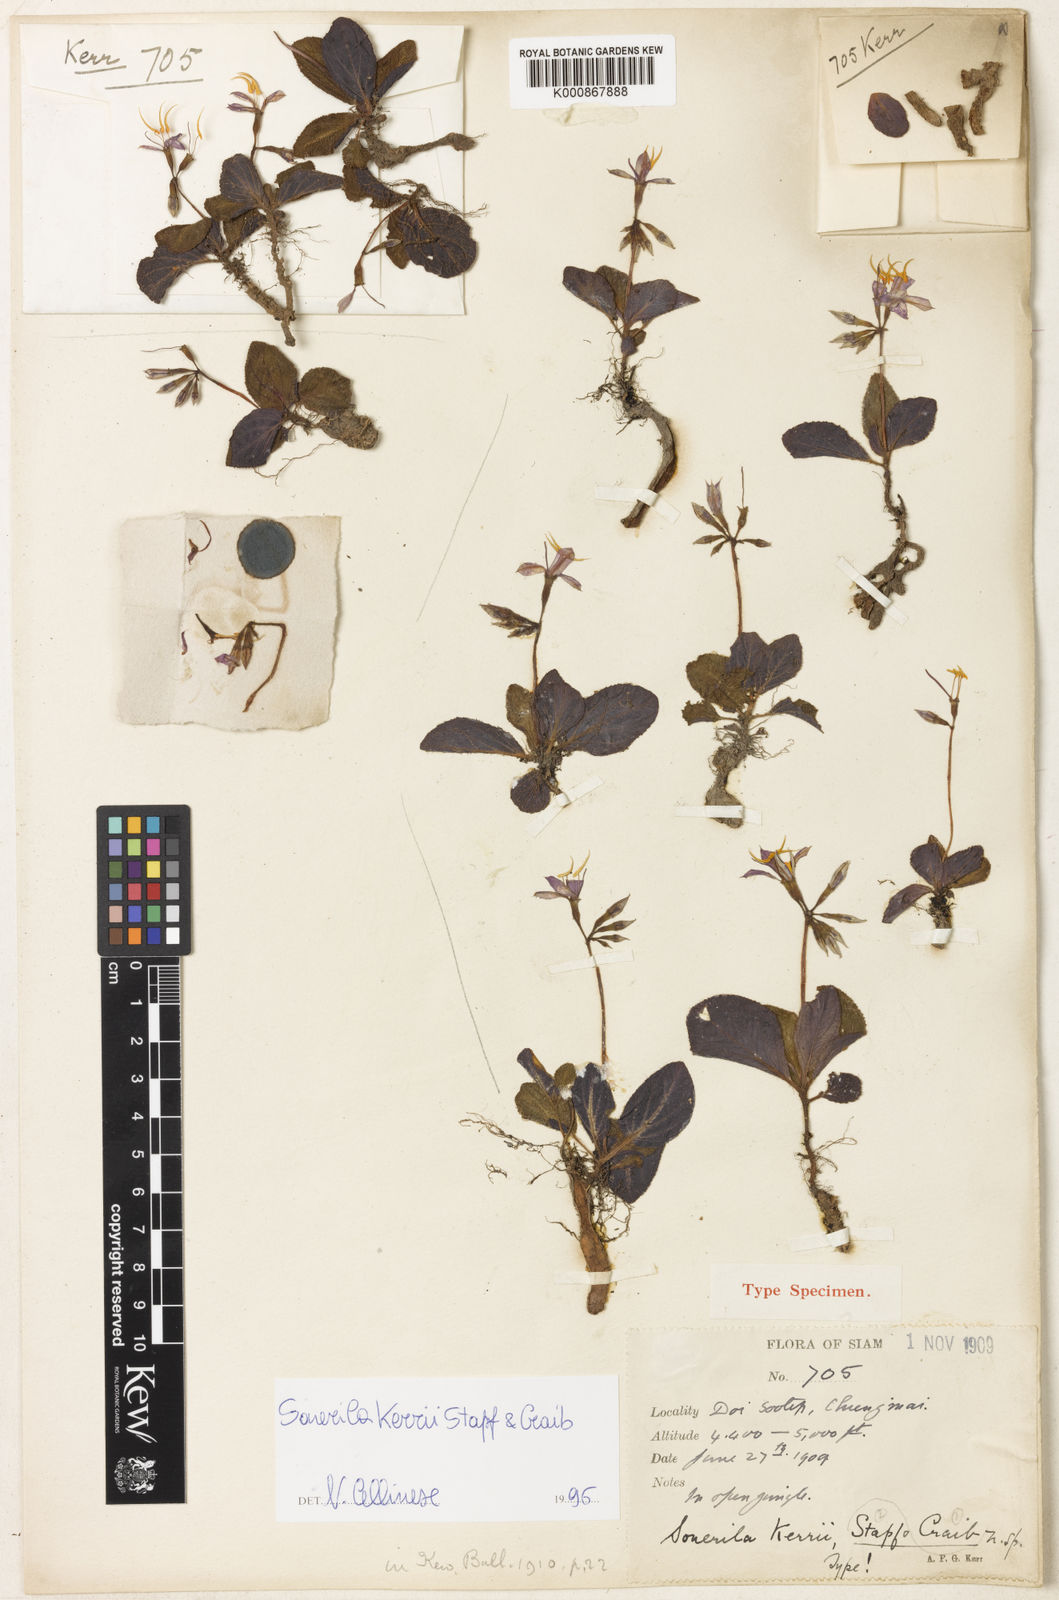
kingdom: Plantae
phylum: Tracheophyta
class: Magnoliopsida
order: Myrtales
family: Melastomataceae
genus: Sonerila
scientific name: Sonerila griffithii
